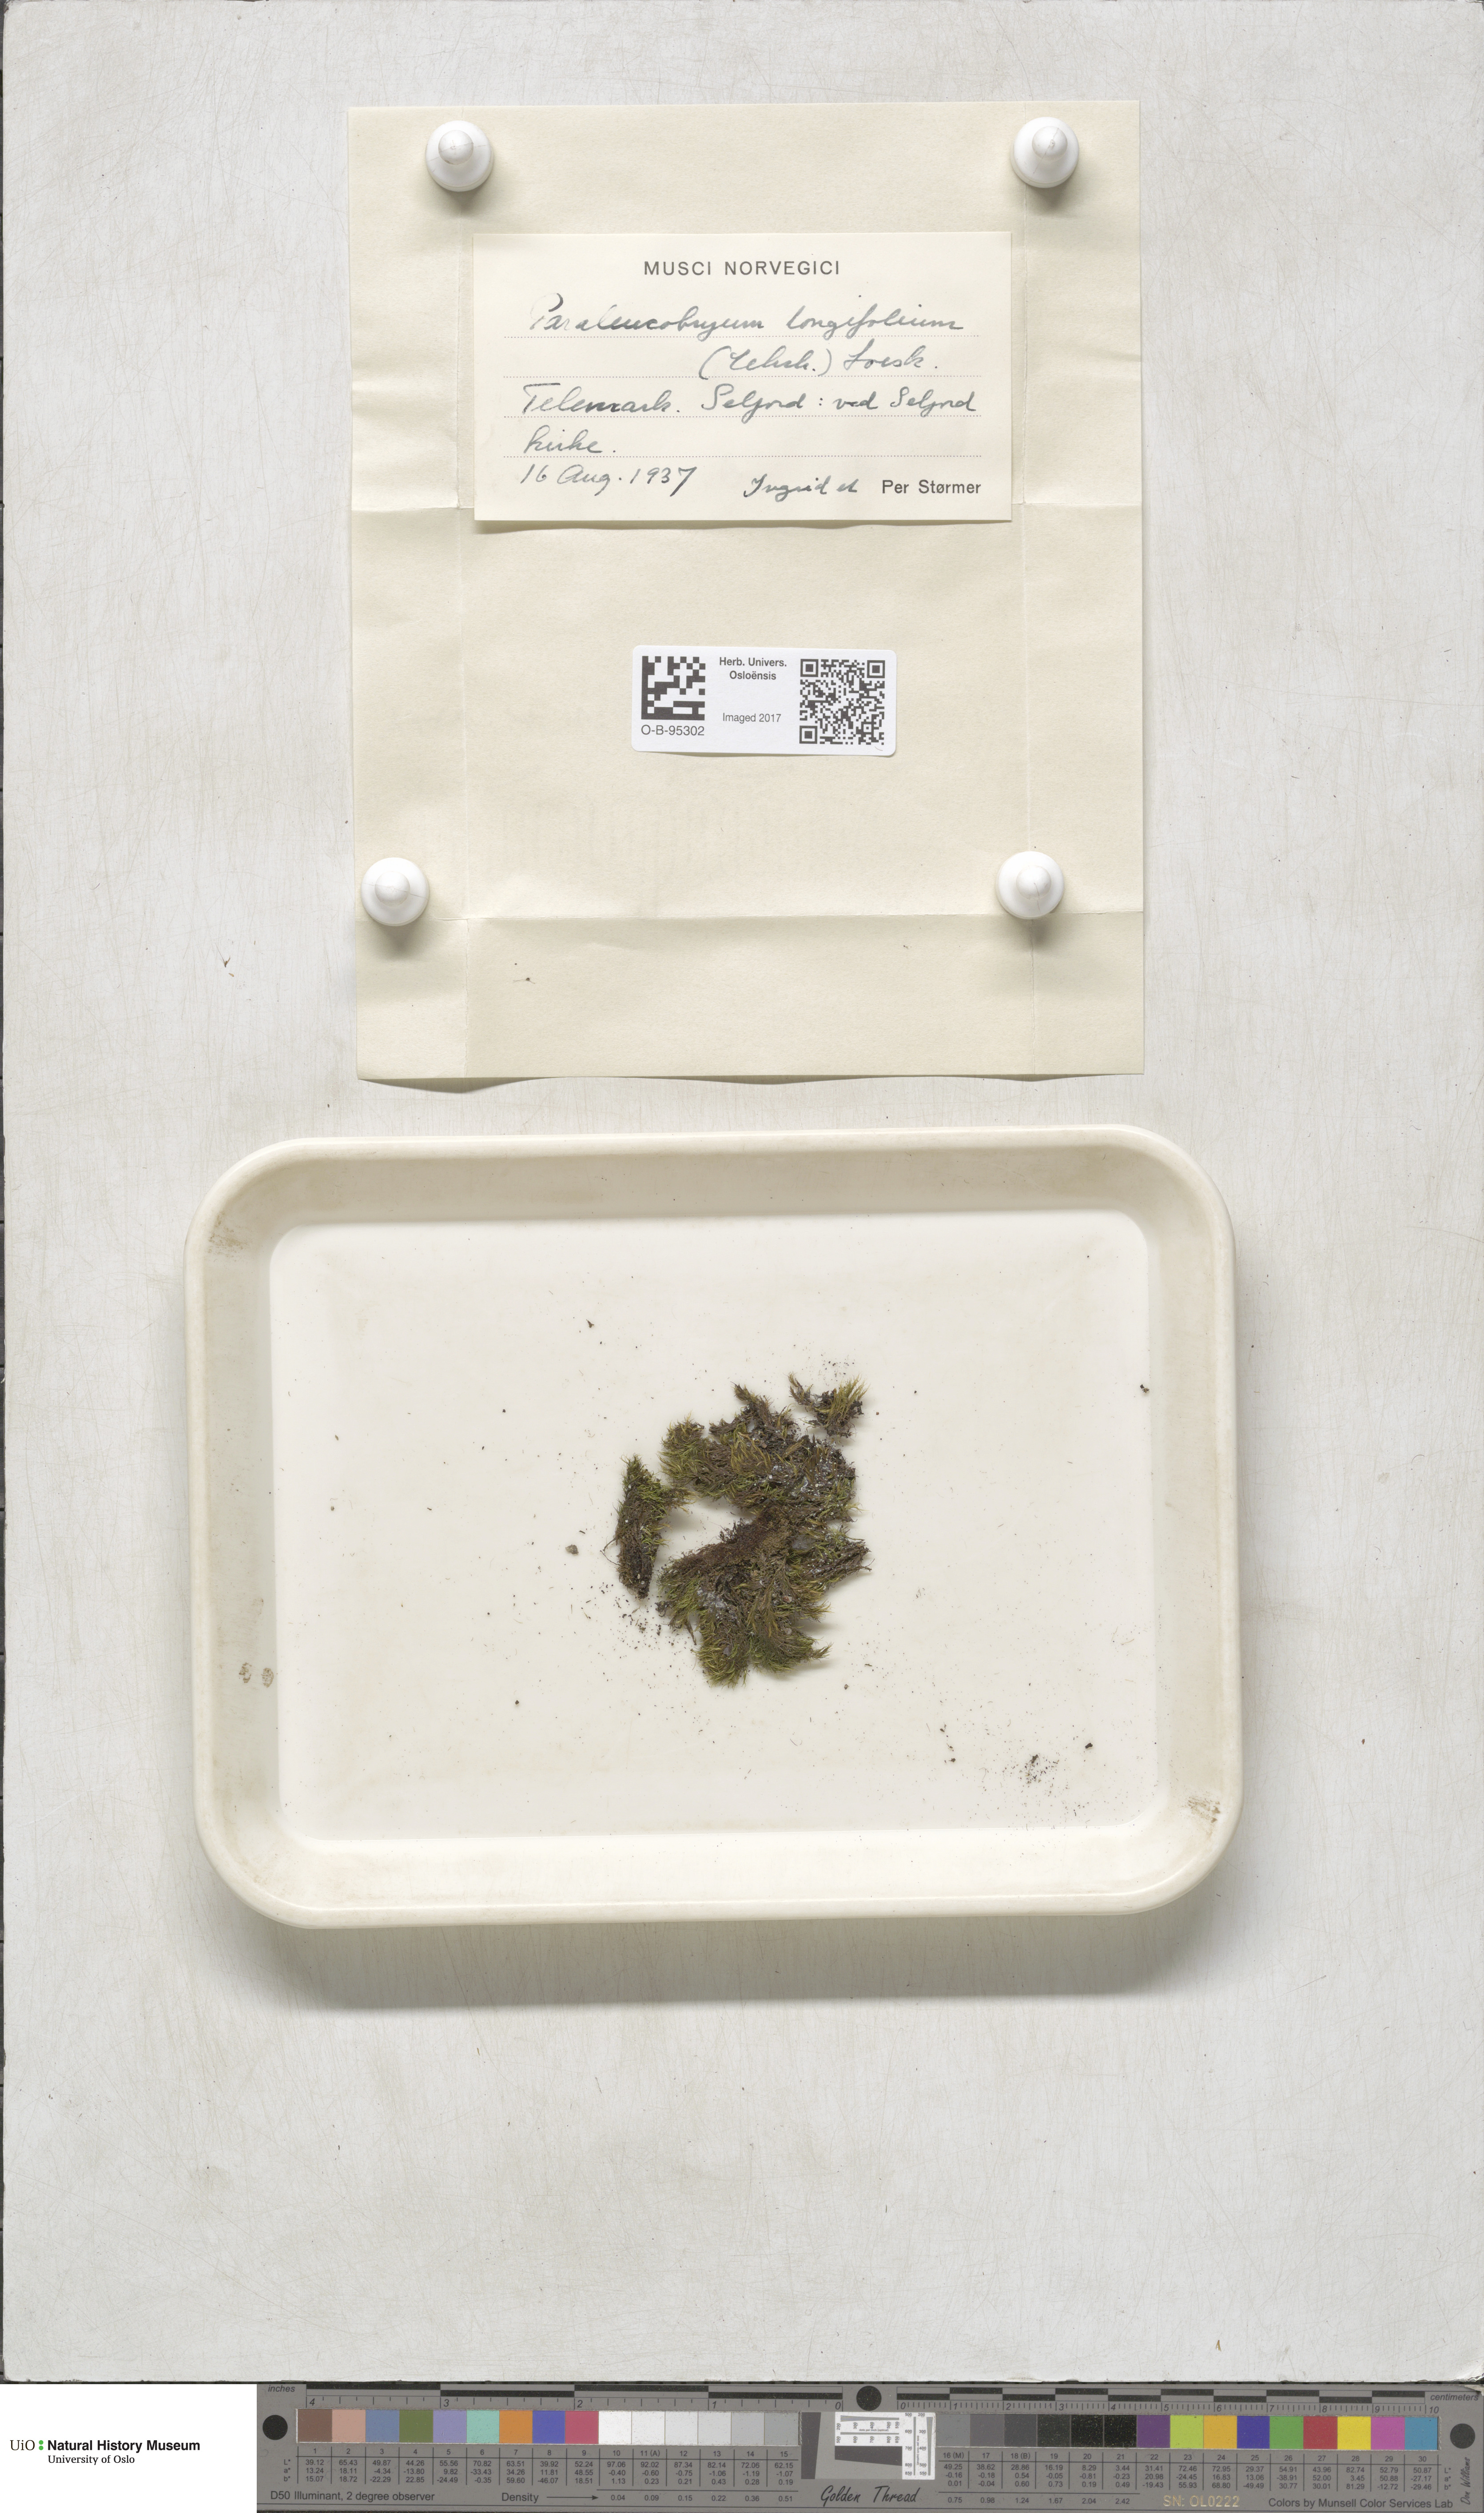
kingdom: Plantae
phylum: Bryophyta
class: Bryopsida
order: Dicranales
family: Dicranaceae
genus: Paraleucobryum
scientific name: Paraleucobryum longifolium
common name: Long-leaved fork moss
